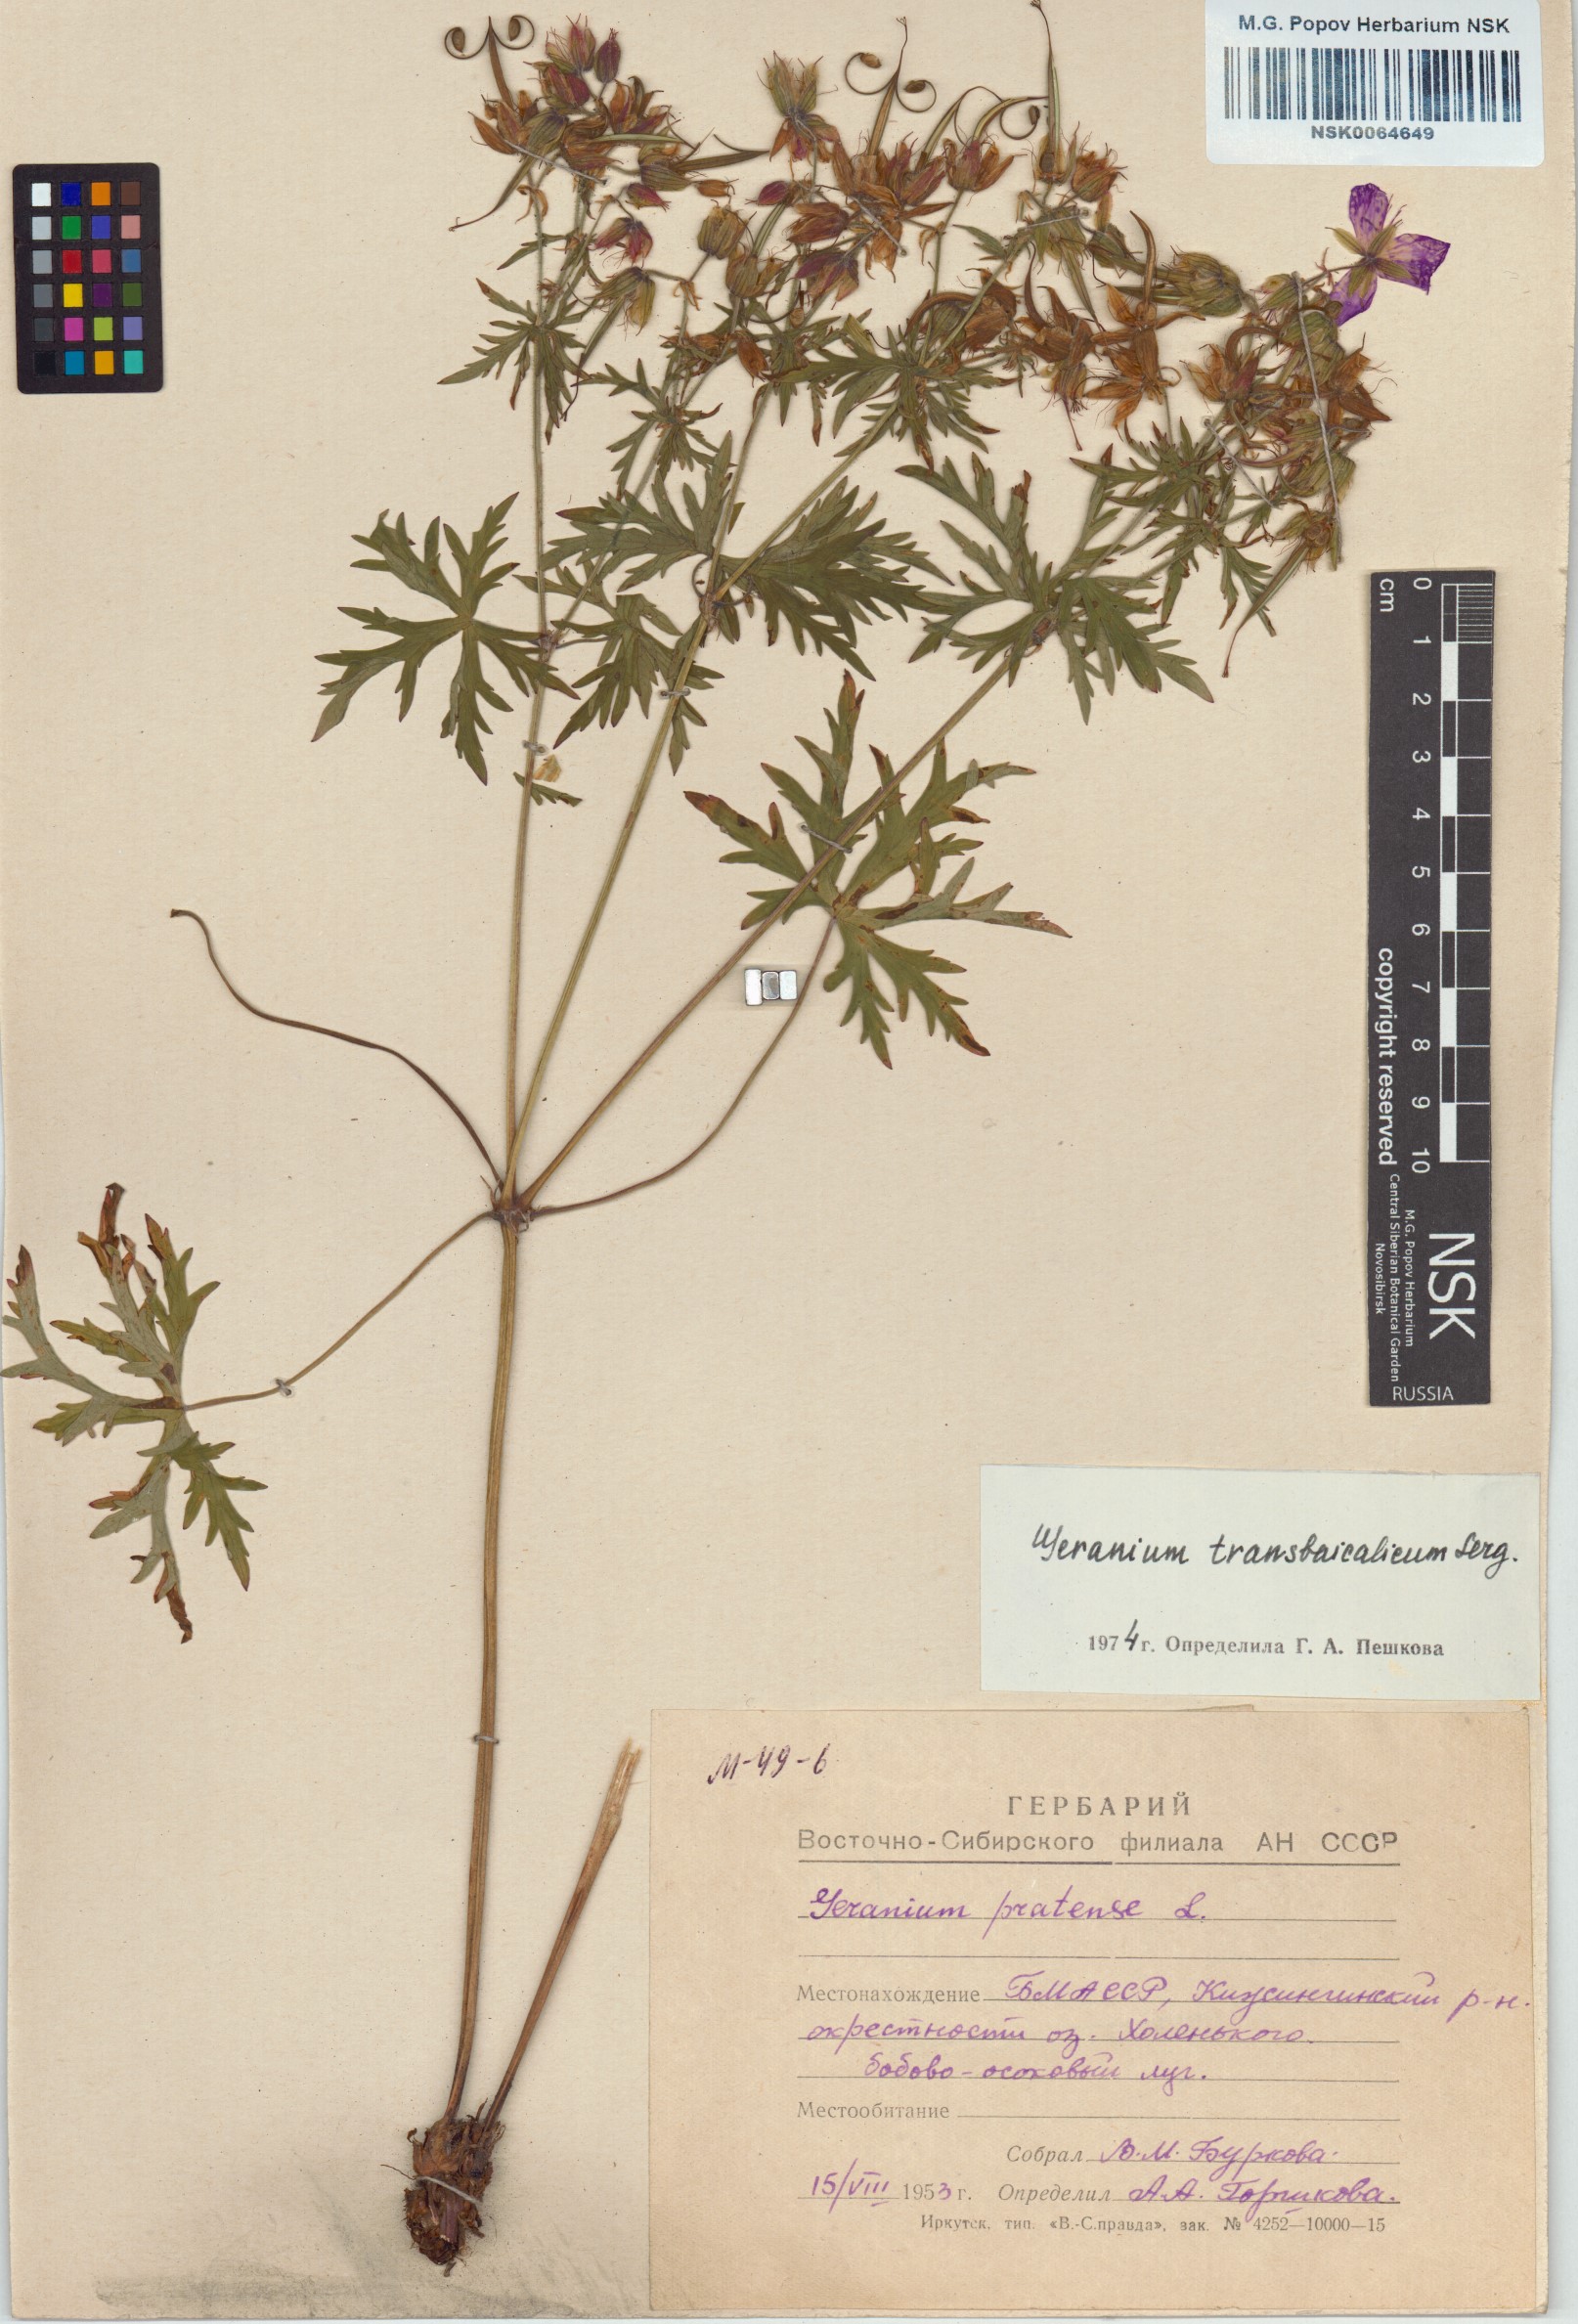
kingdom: Plantae
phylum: Tracheophyta
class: Magnoliopsida
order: Geraniales
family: Geraniaceae
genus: Geranium
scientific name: Geranium pratense
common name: Meadow crane's-bill
